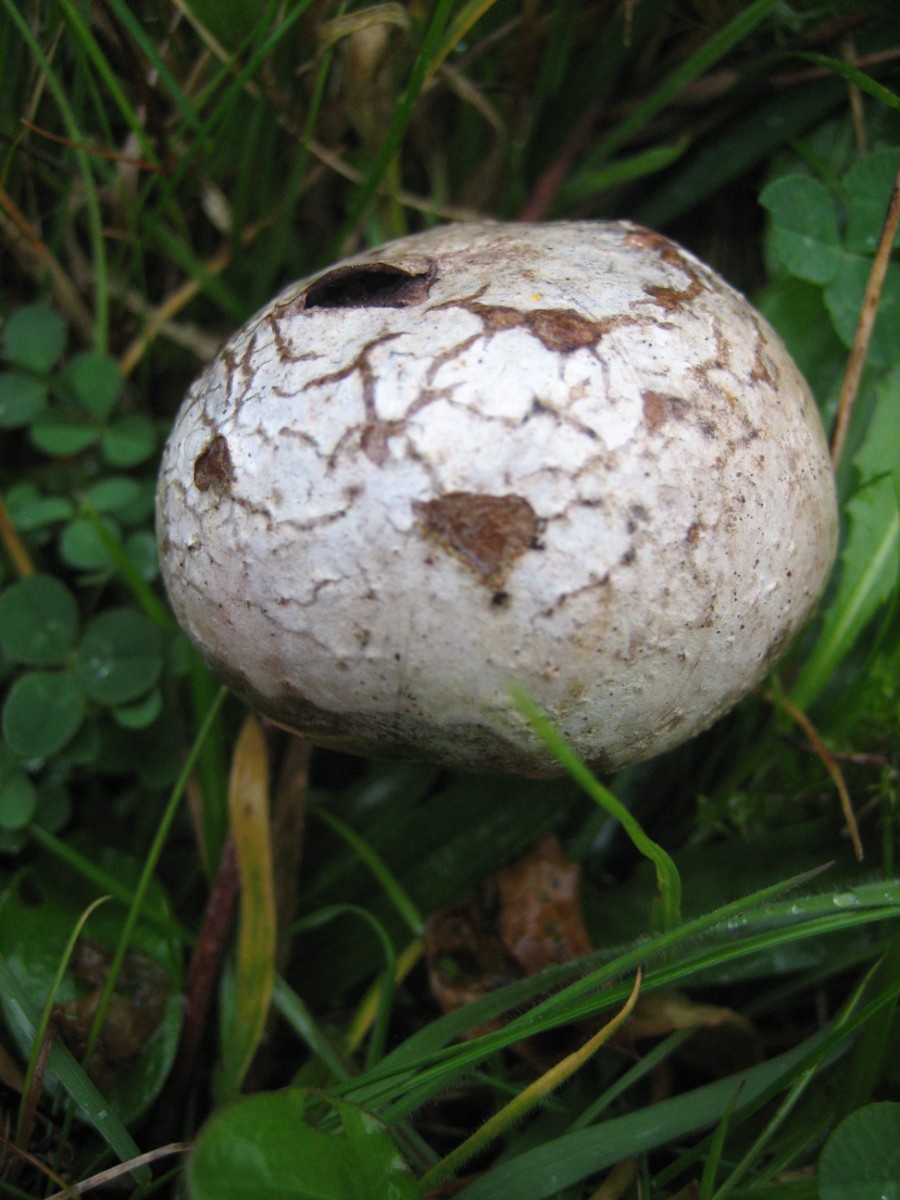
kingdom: Fungi
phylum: Basidiomycota
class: Agaricomycetes
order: Agaricales
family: Lycoperdaceae
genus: Bovista
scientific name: Bovista
